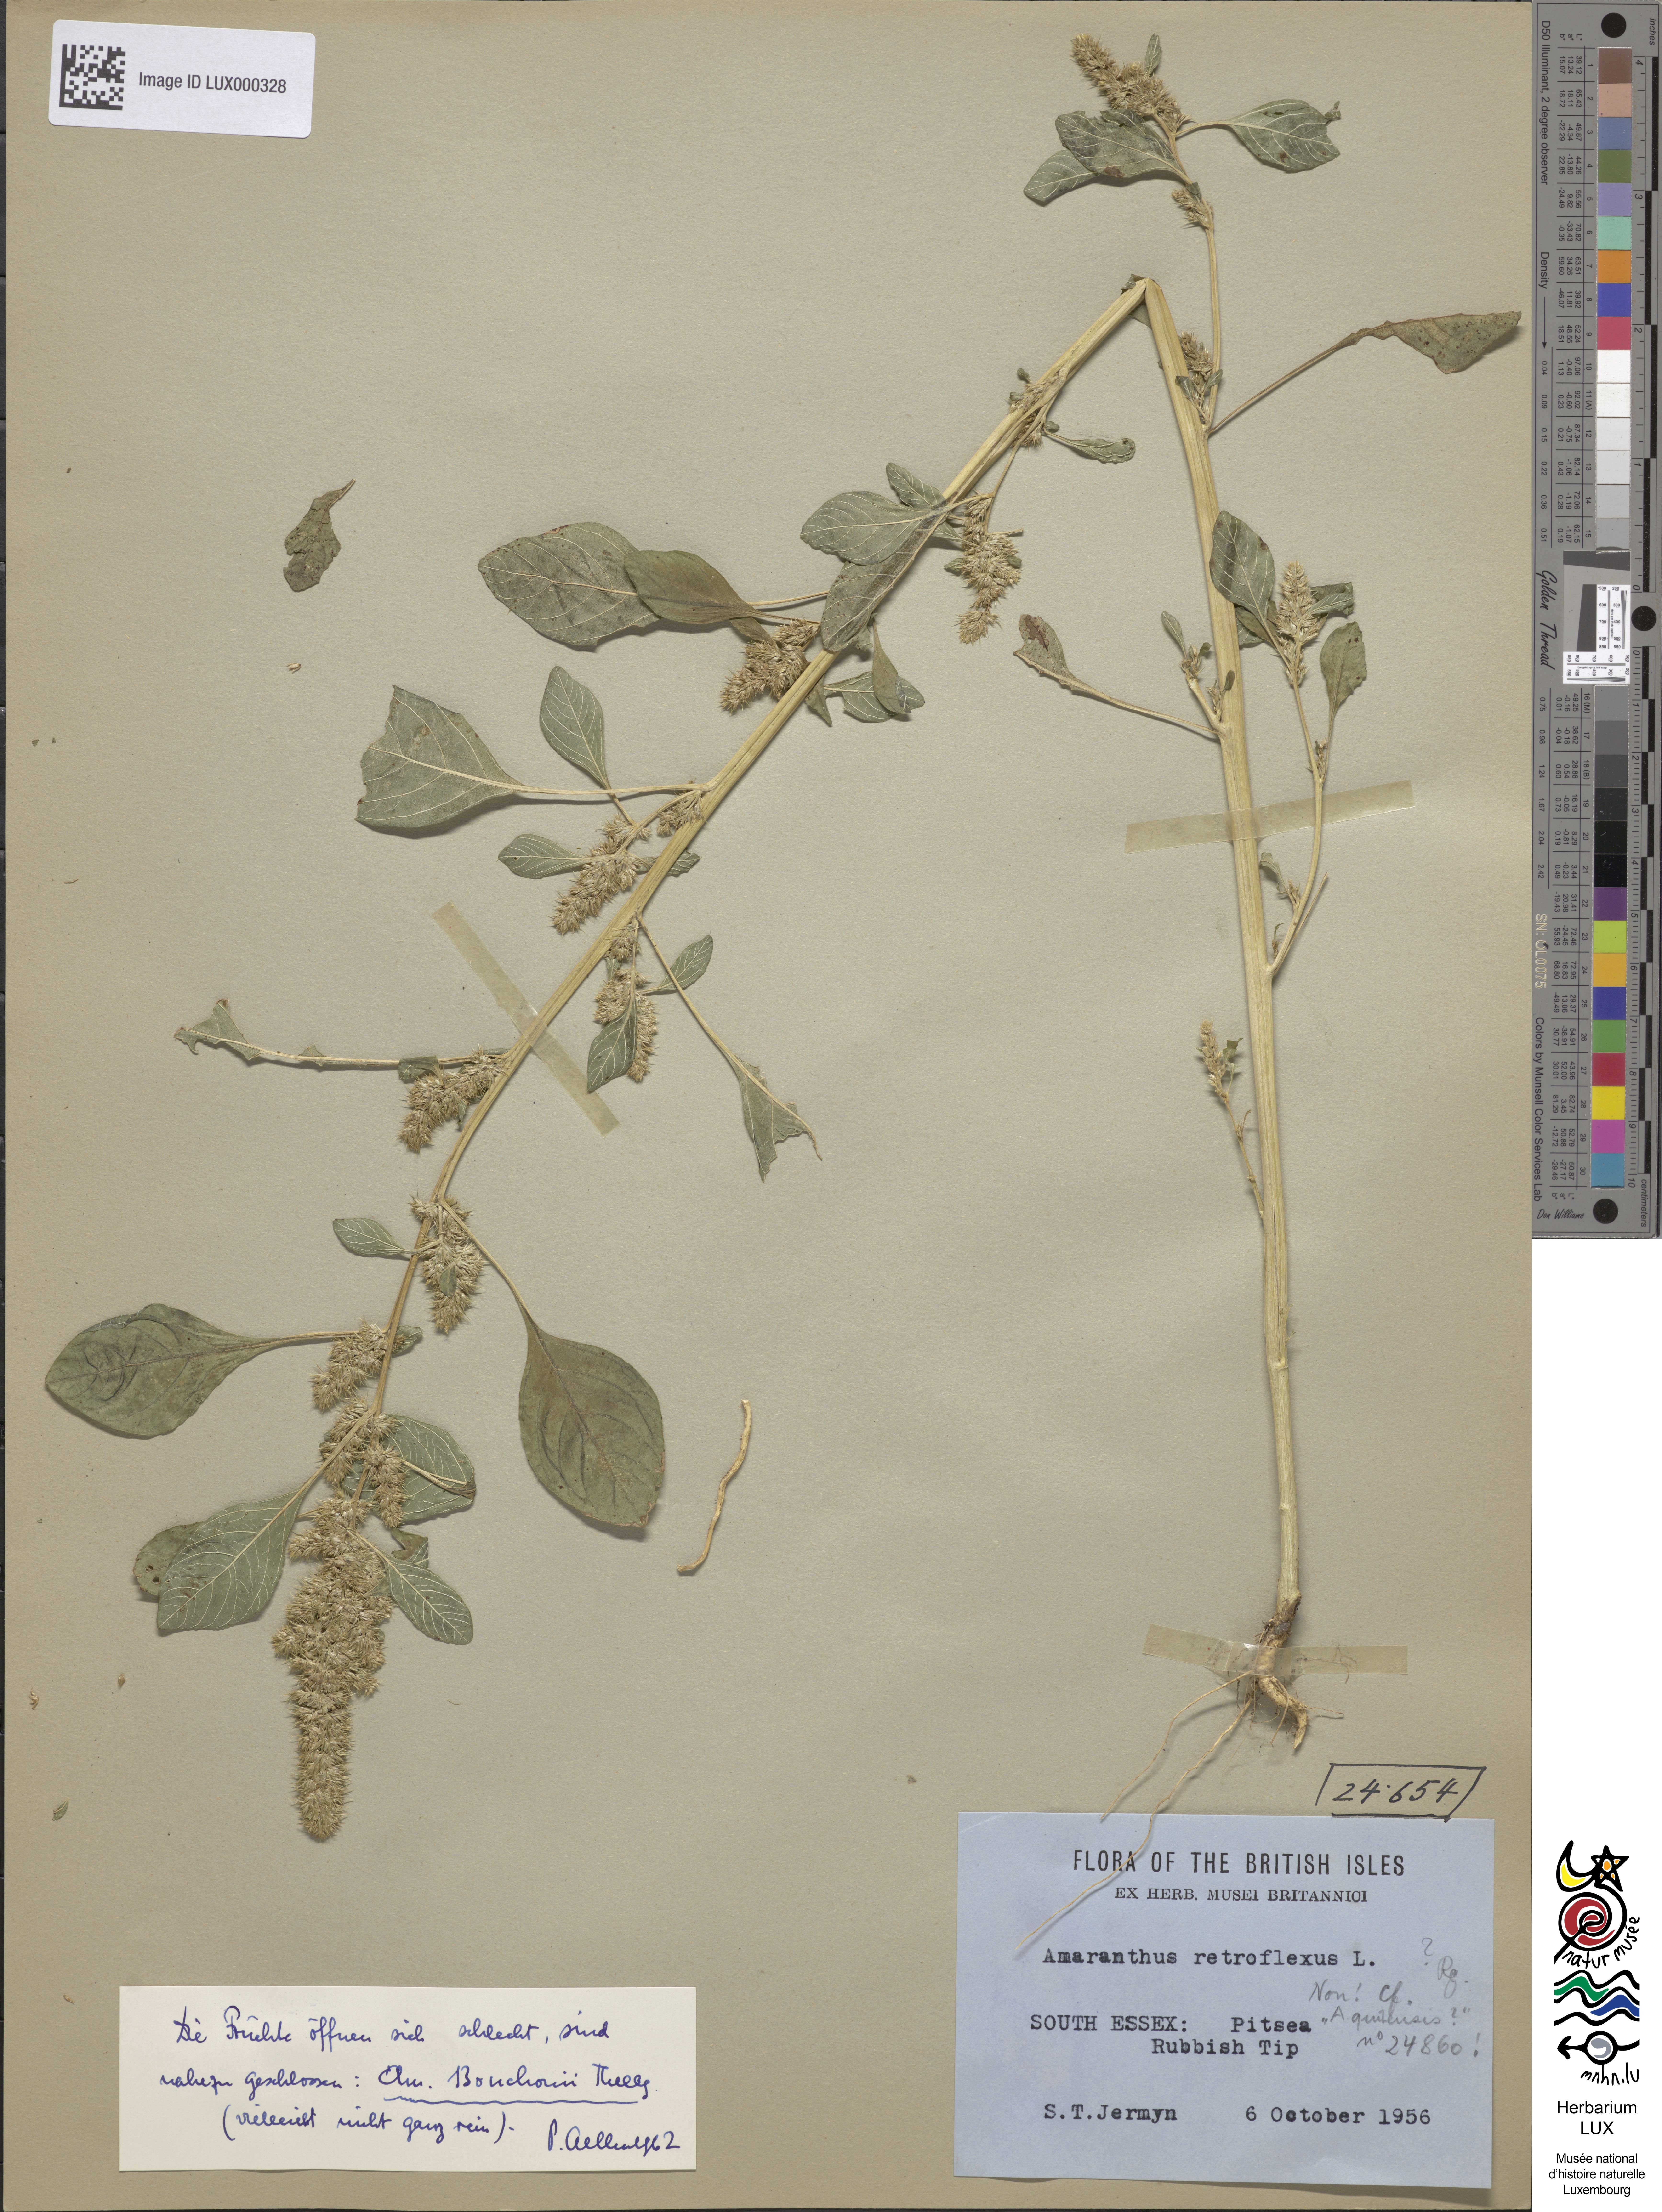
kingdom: Plantae
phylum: Tracheophyta
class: Magnoliopsida
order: Caryophyllales
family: Amaranthaceae
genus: Amaranthus
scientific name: Amaranthus bouchonii
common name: Indehiscent amaranth
